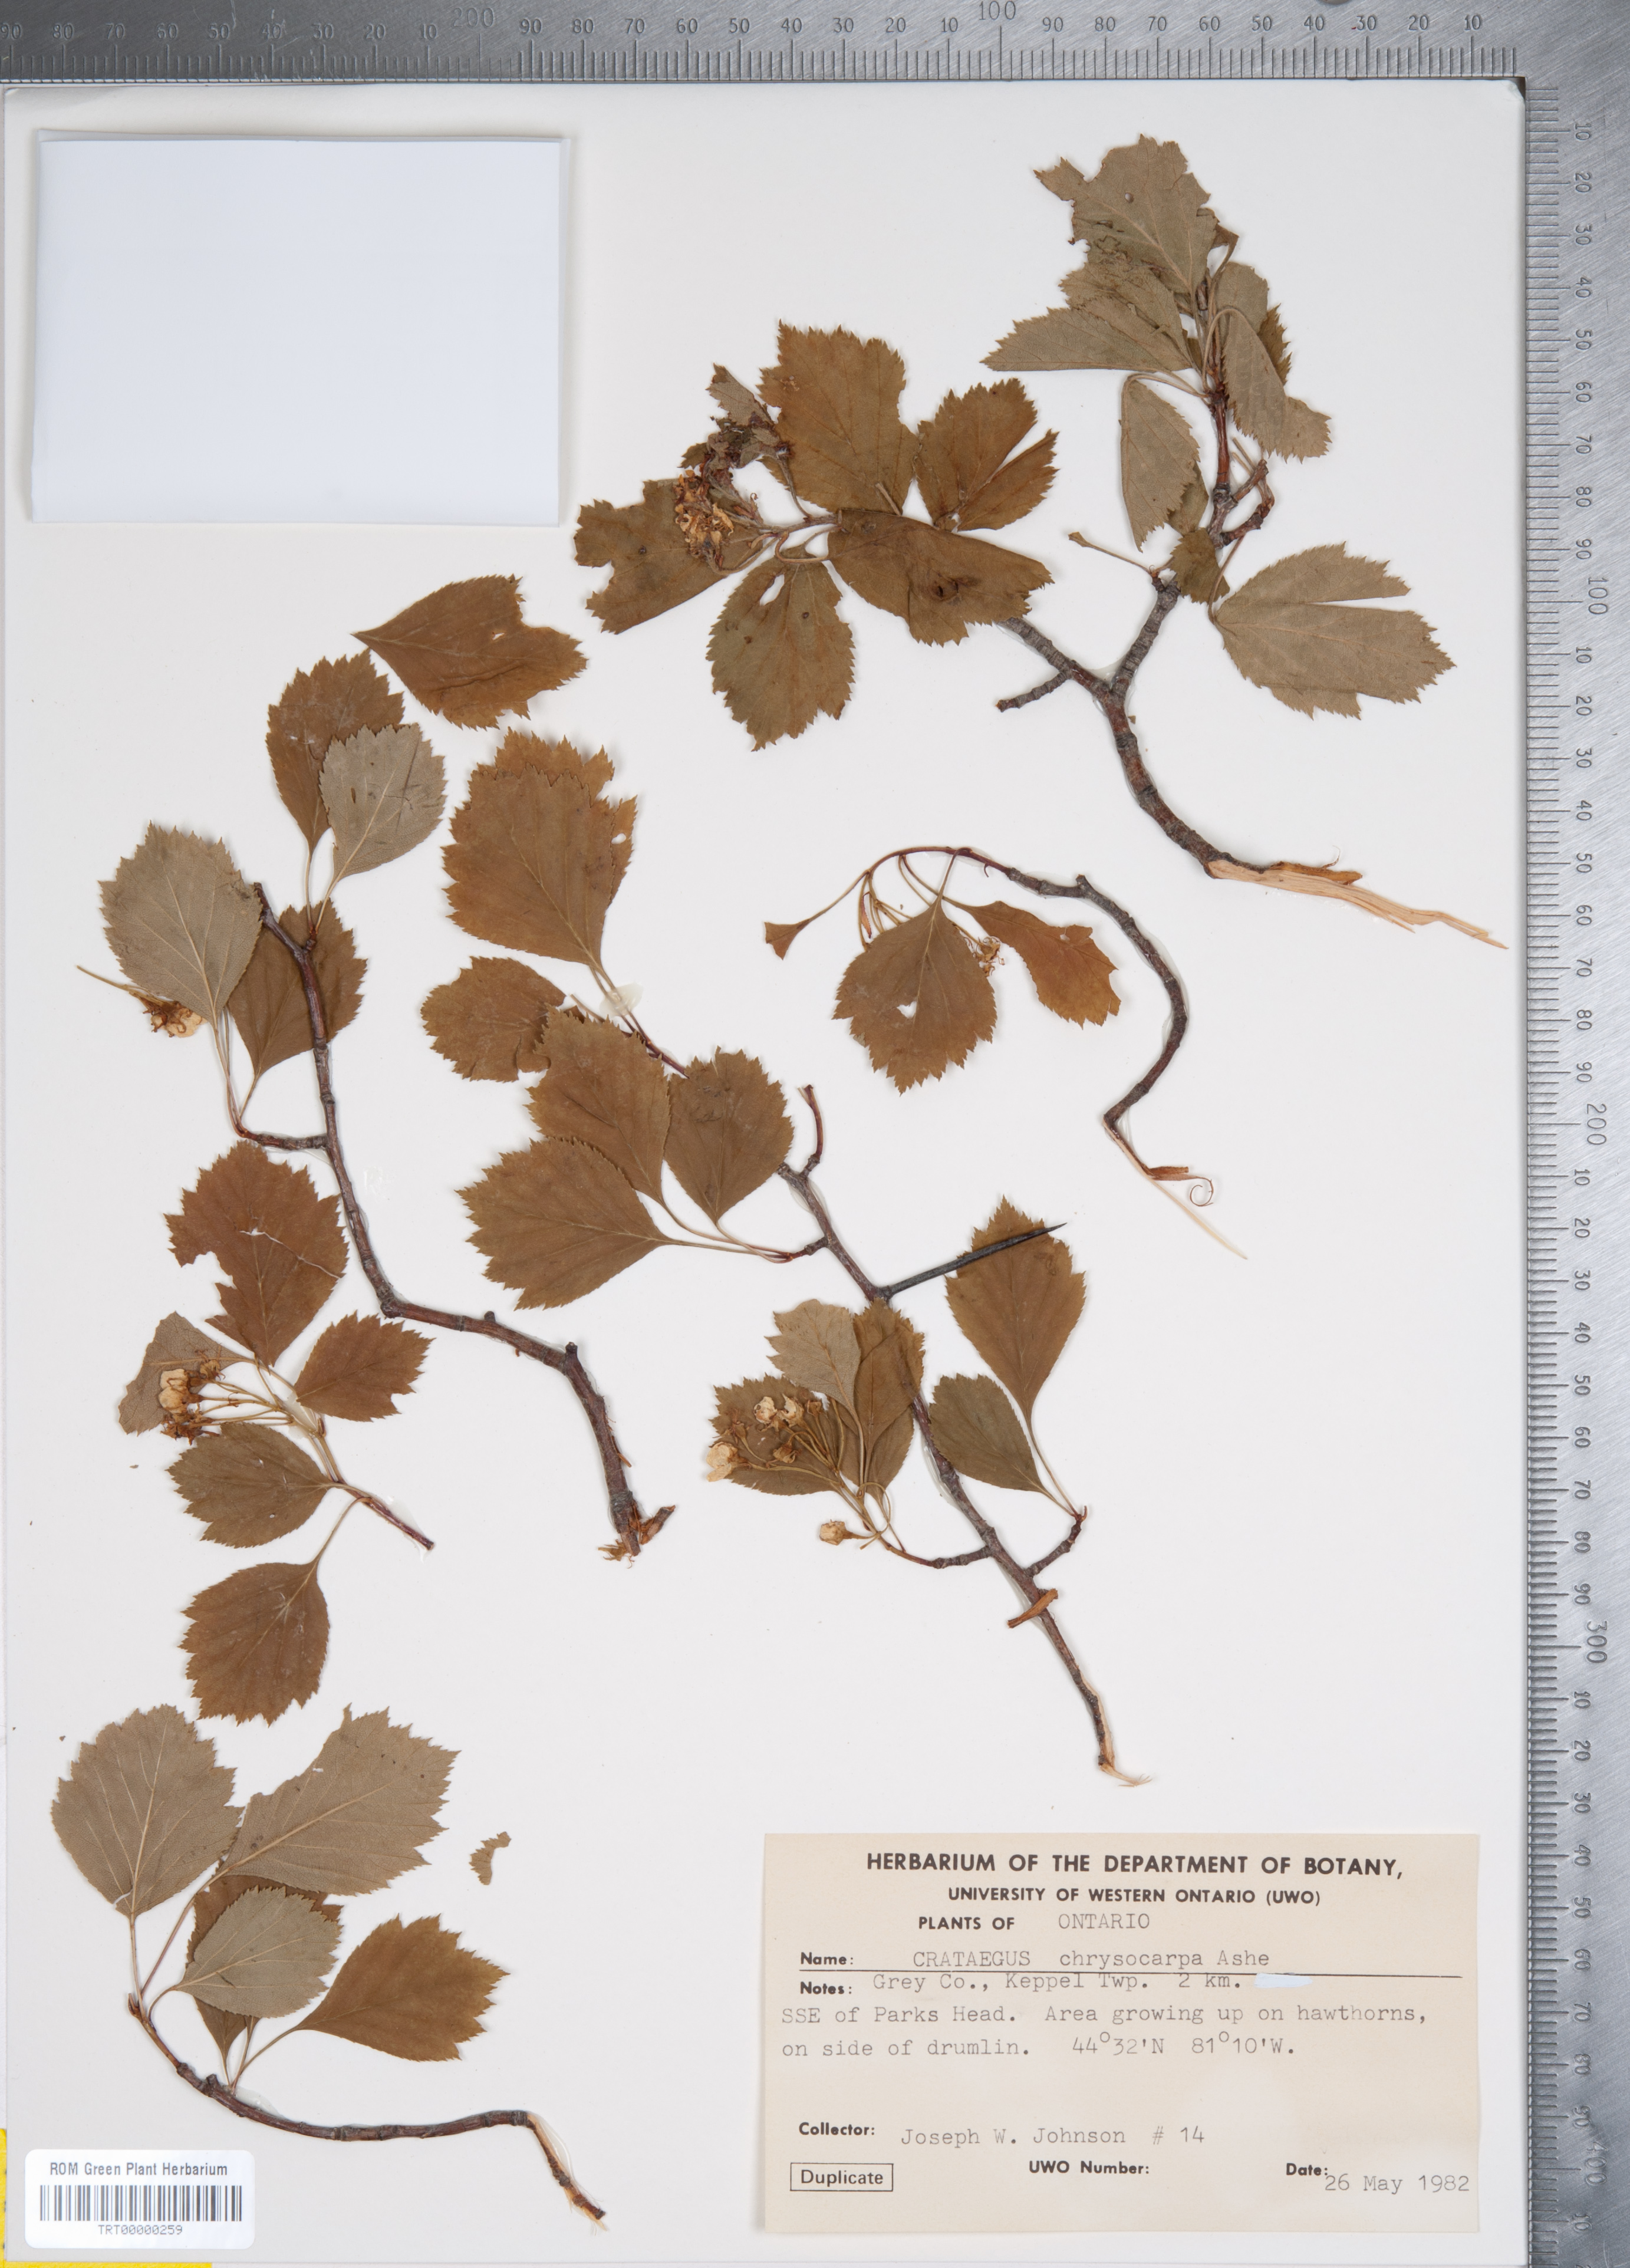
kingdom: Plantae
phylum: Tracheophyta
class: Magnoliopsida
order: Rosales
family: Rosaceae
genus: Crataegus
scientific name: Crataegus chrysocarpa
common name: Fire-berry hawthorn
